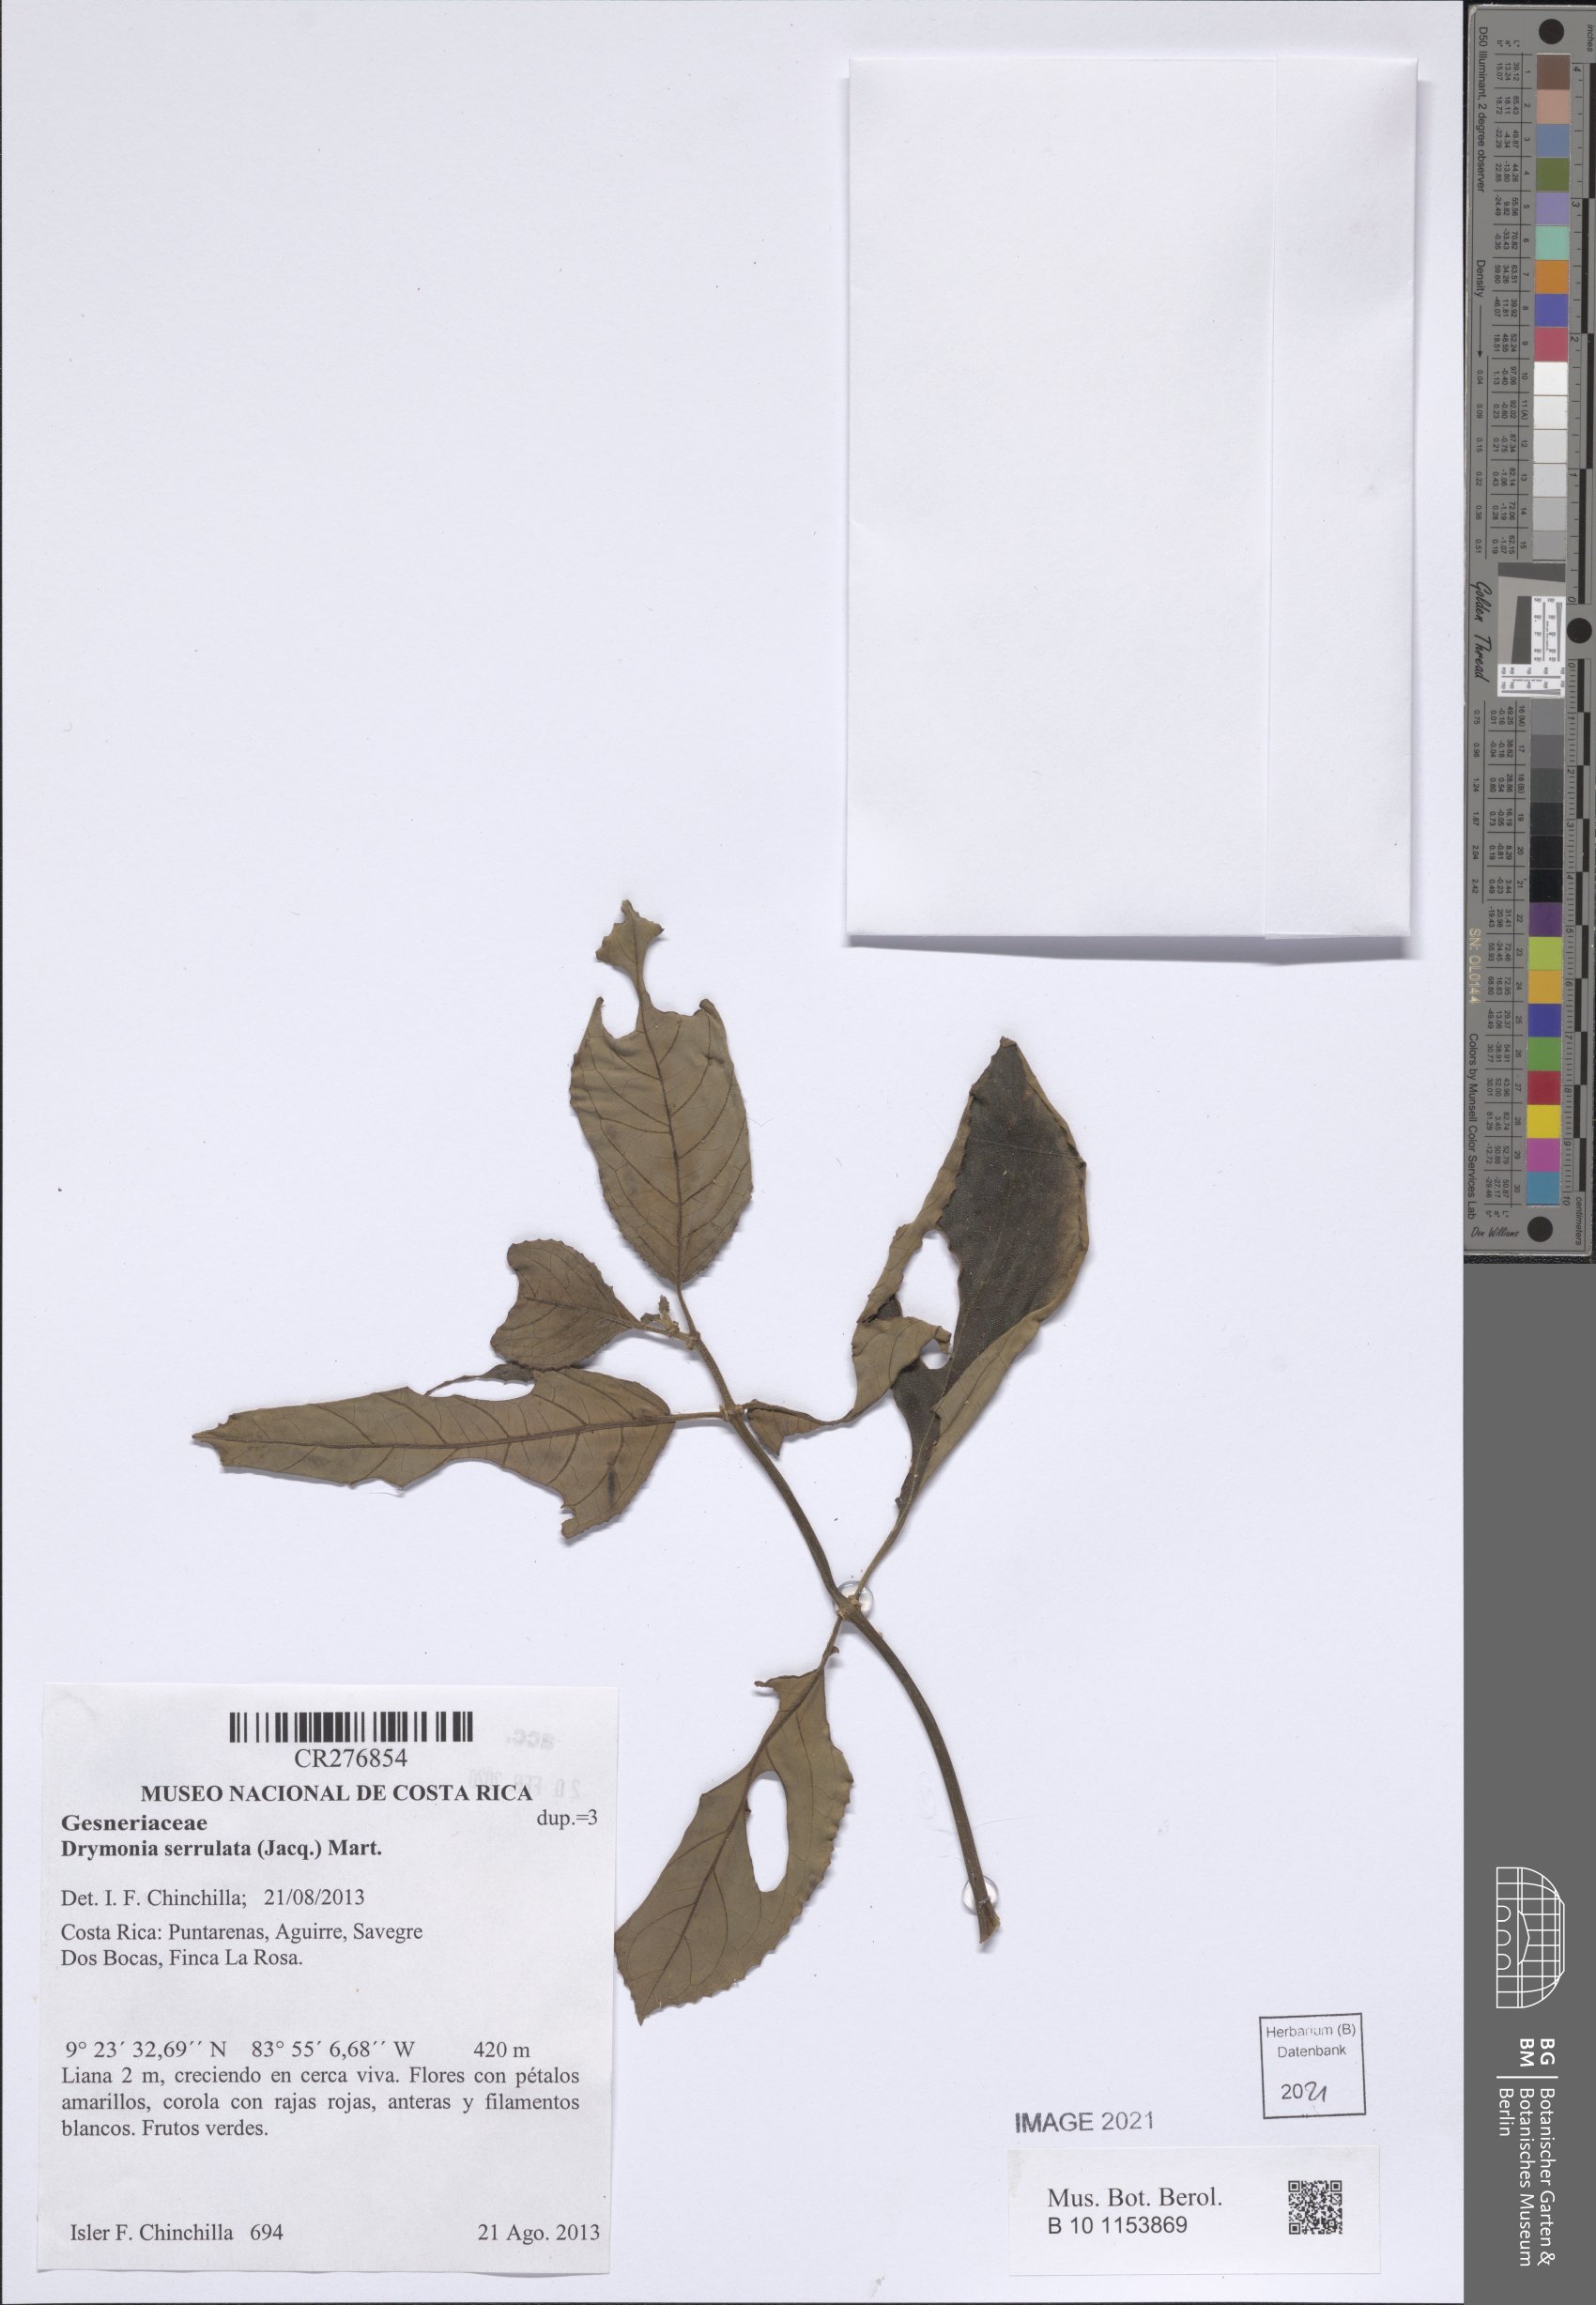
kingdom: Plantae
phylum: Tracheophyta
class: Magnoliopsida
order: Lamiales
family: Gesneriaceae
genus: Drymonia
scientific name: Drymonia serrulata
